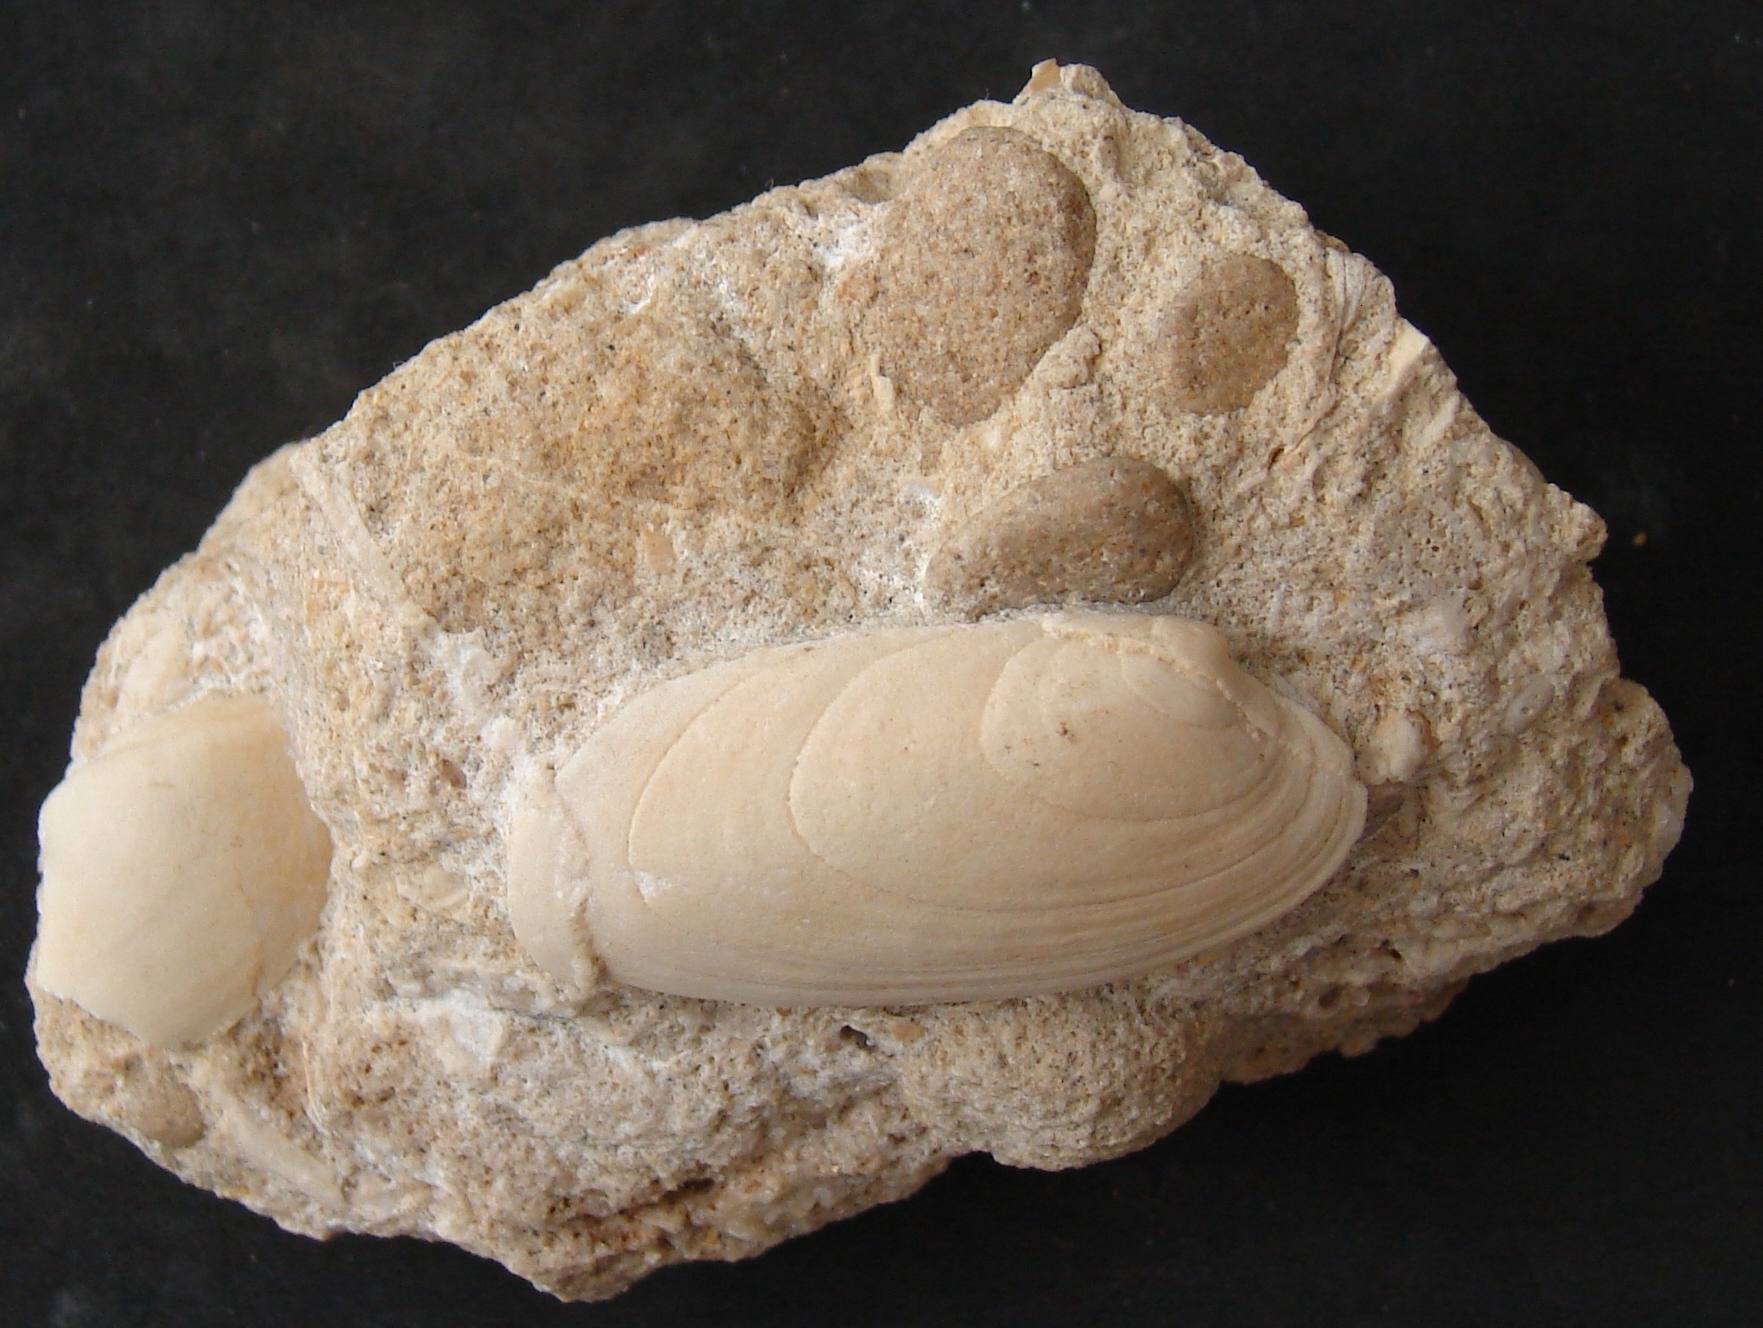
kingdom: Animalia
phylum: Mollusca
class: Bivalvia
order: Carditida
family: Cardiniidae
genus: Cardinia
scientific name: Cardinia
